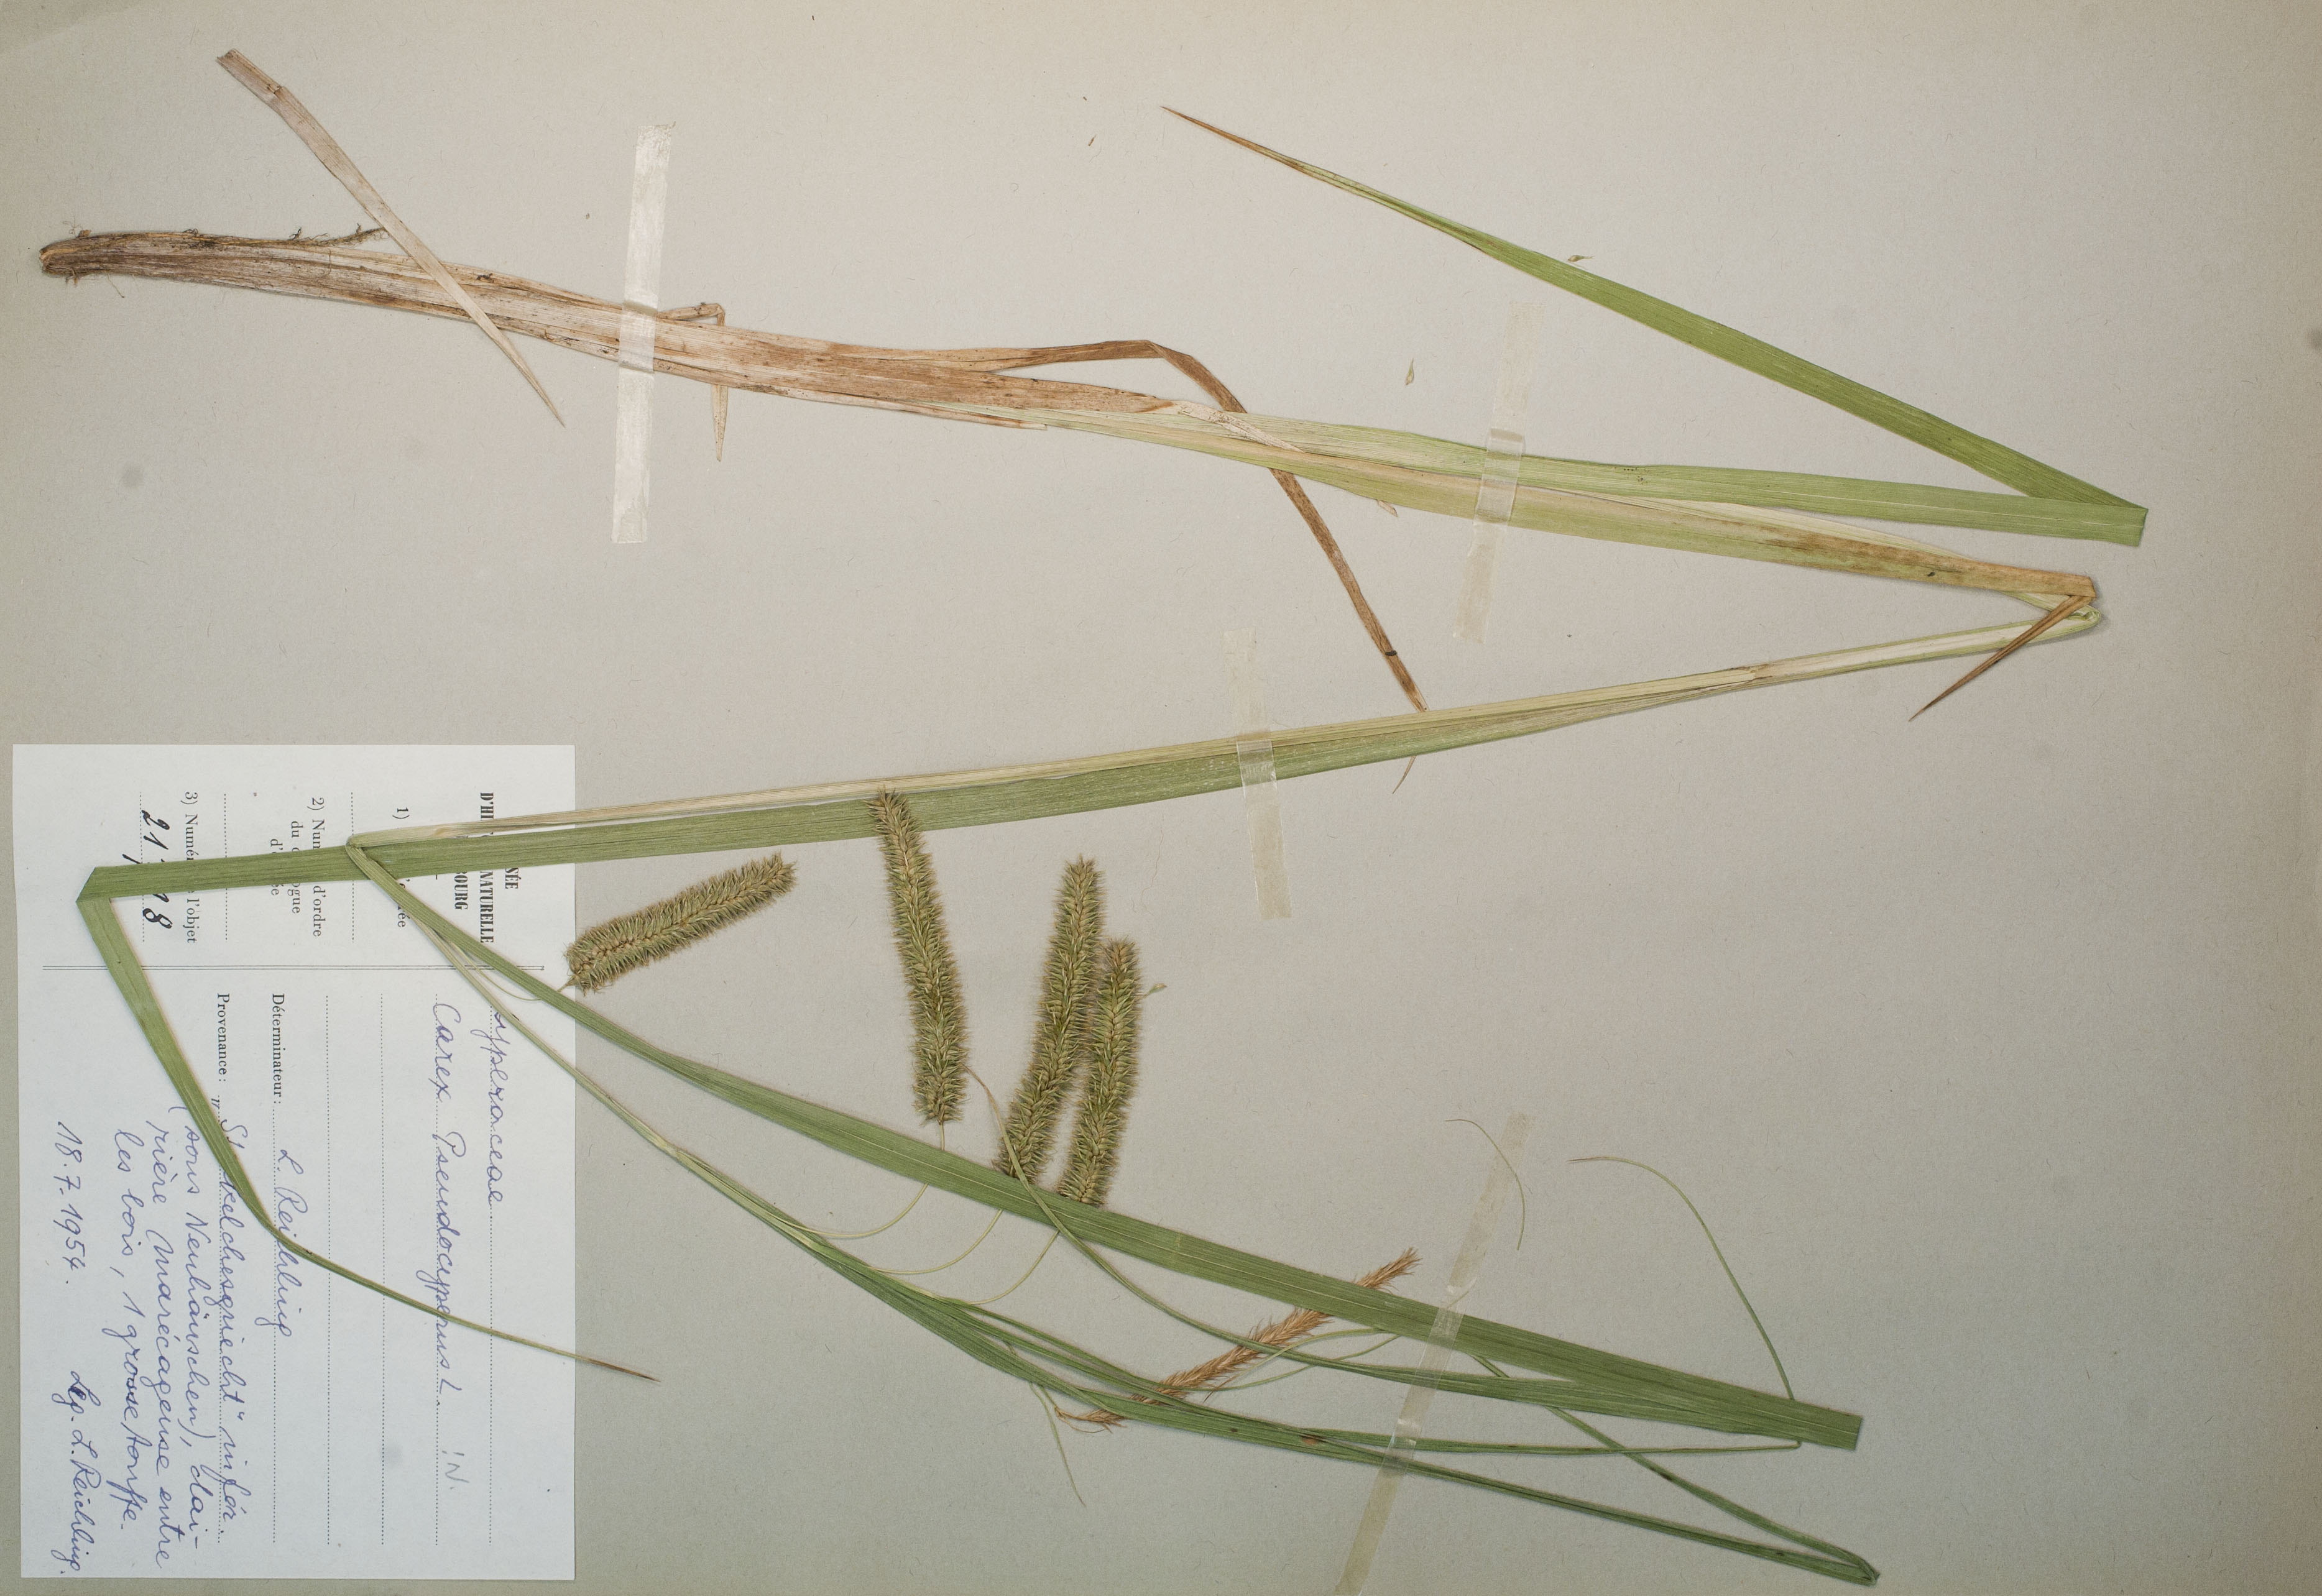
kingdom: Plantae
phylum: Tracheophyta
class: Liliopsida
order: Poales
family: Cyperaceae
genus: Carex
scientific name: Carex pseudocyperus
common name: Cyperus sedge
